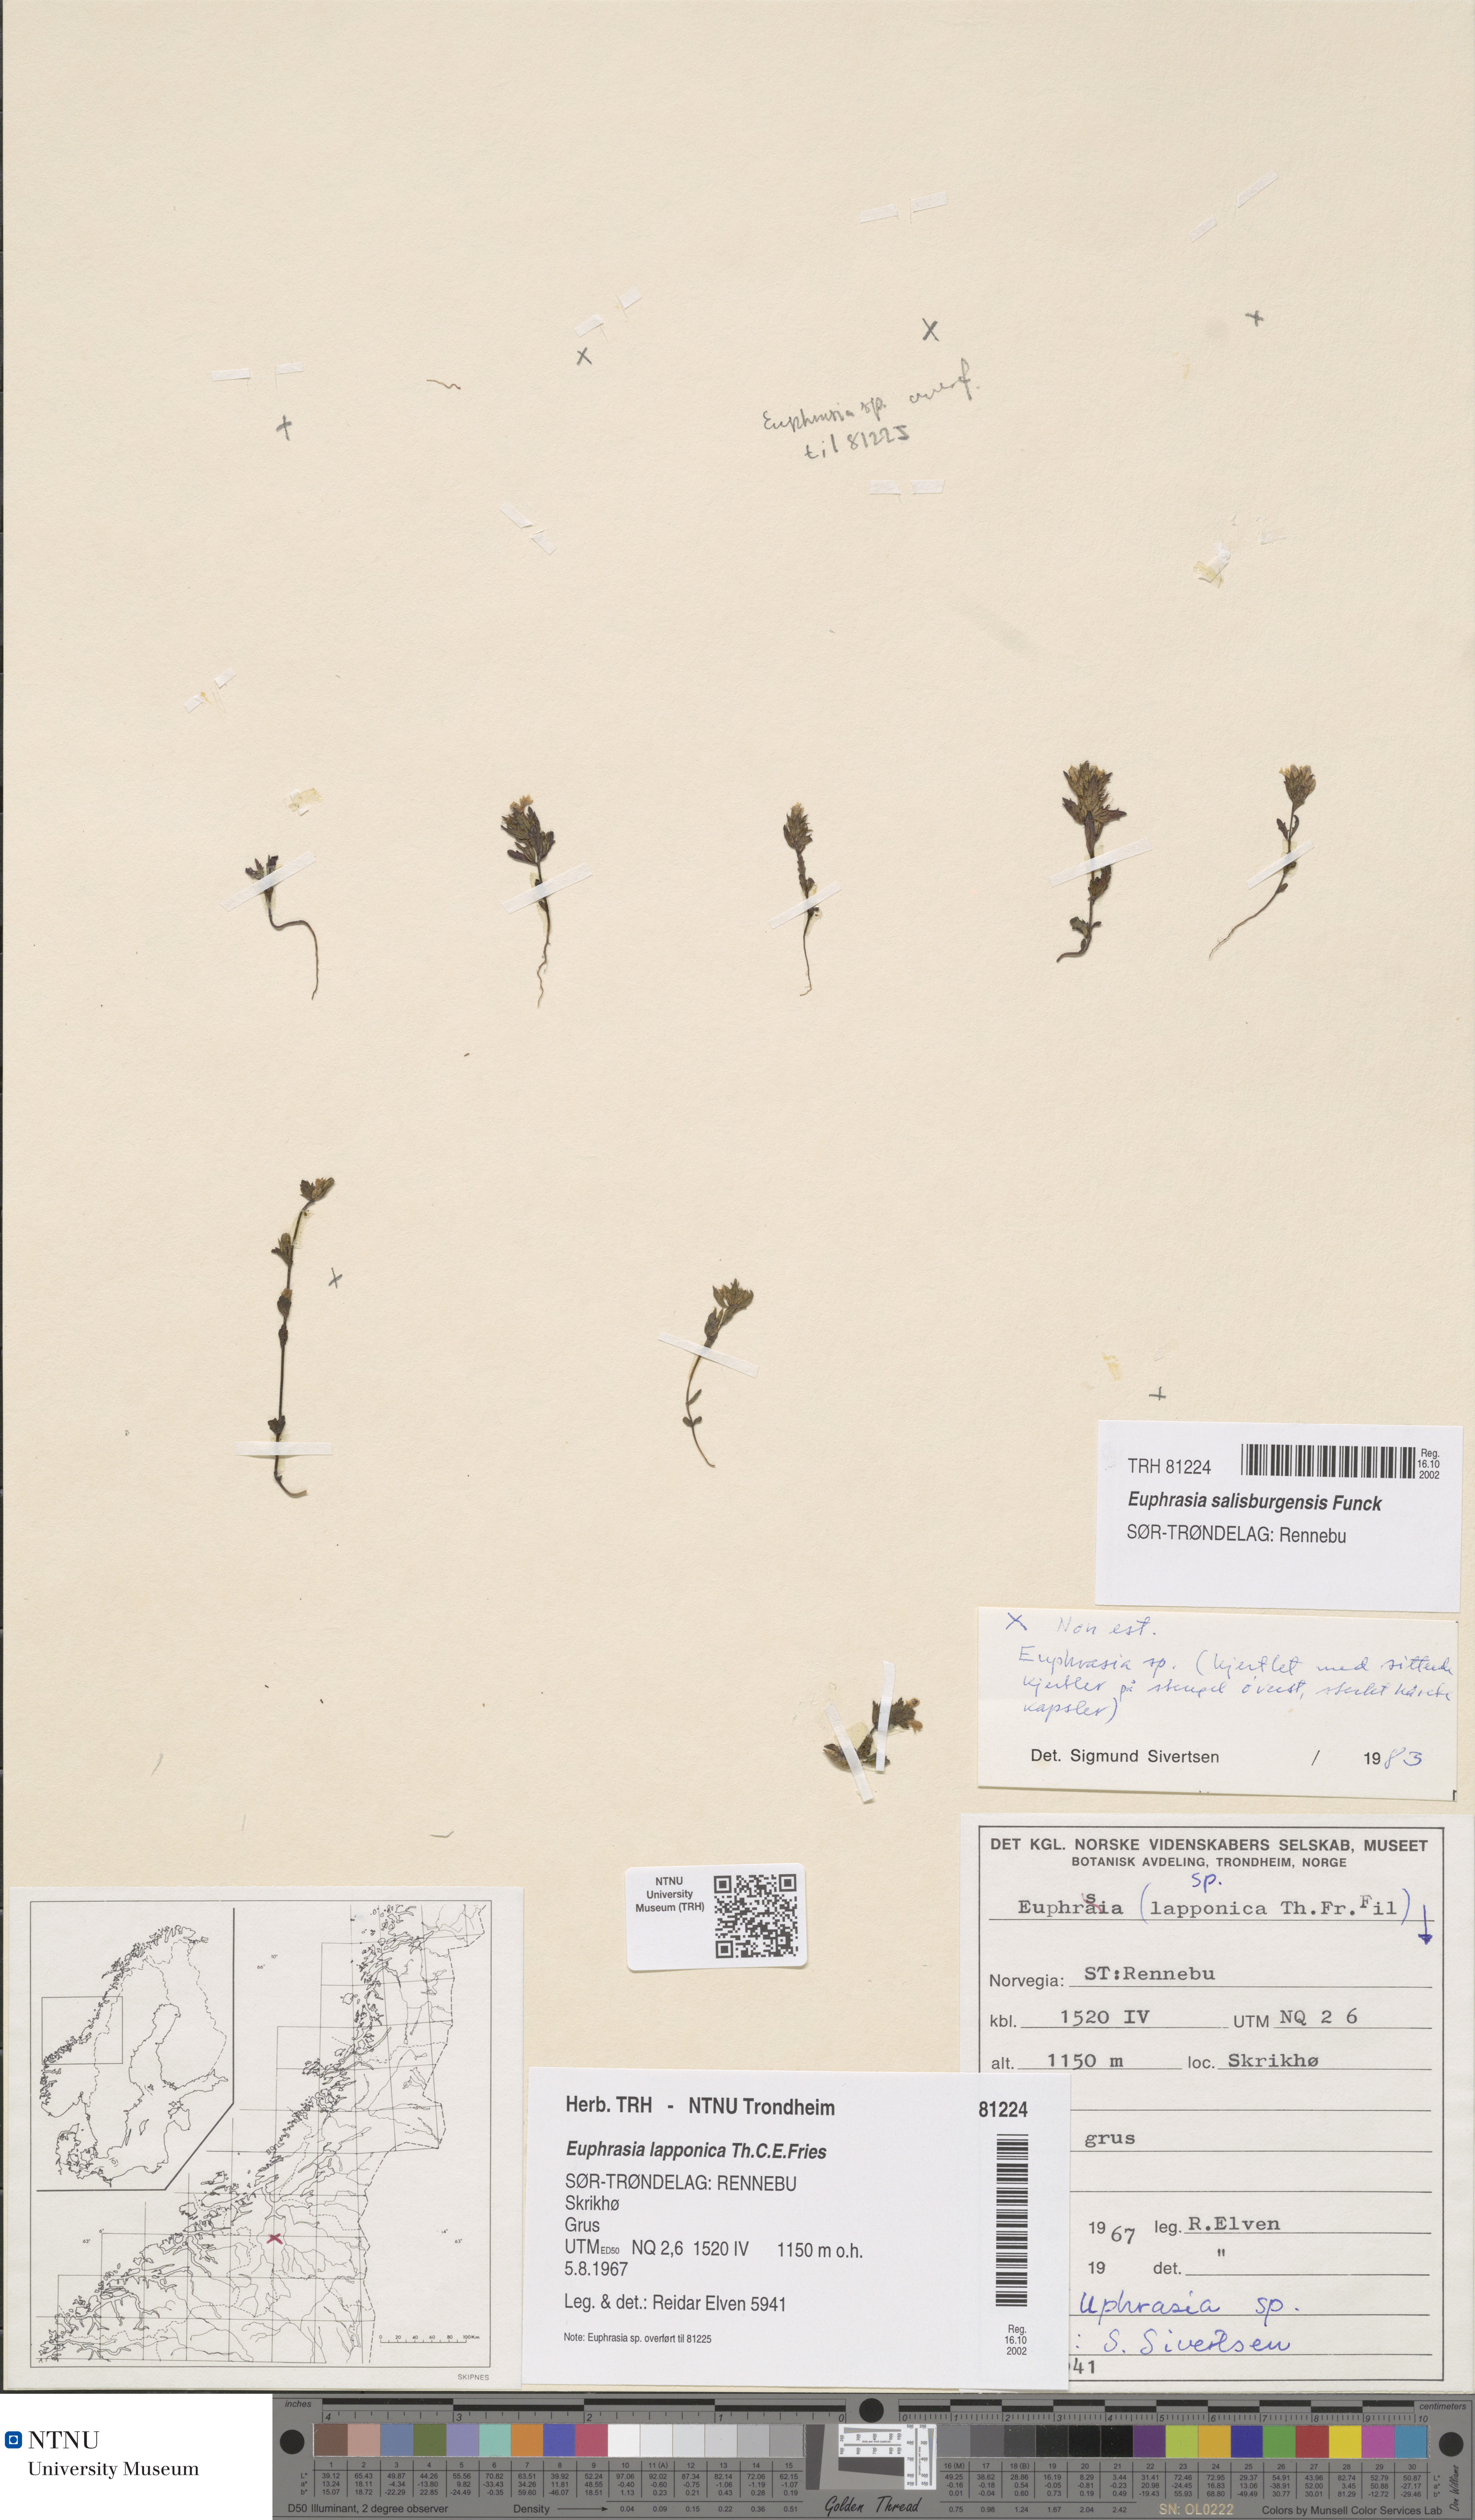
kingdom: Plantae
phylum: Tracheophyta
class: Magnoliopsida
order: Lamiales
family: Orobanchaceae
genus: Euphrasia
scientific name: Euphrasia salisburgensis
